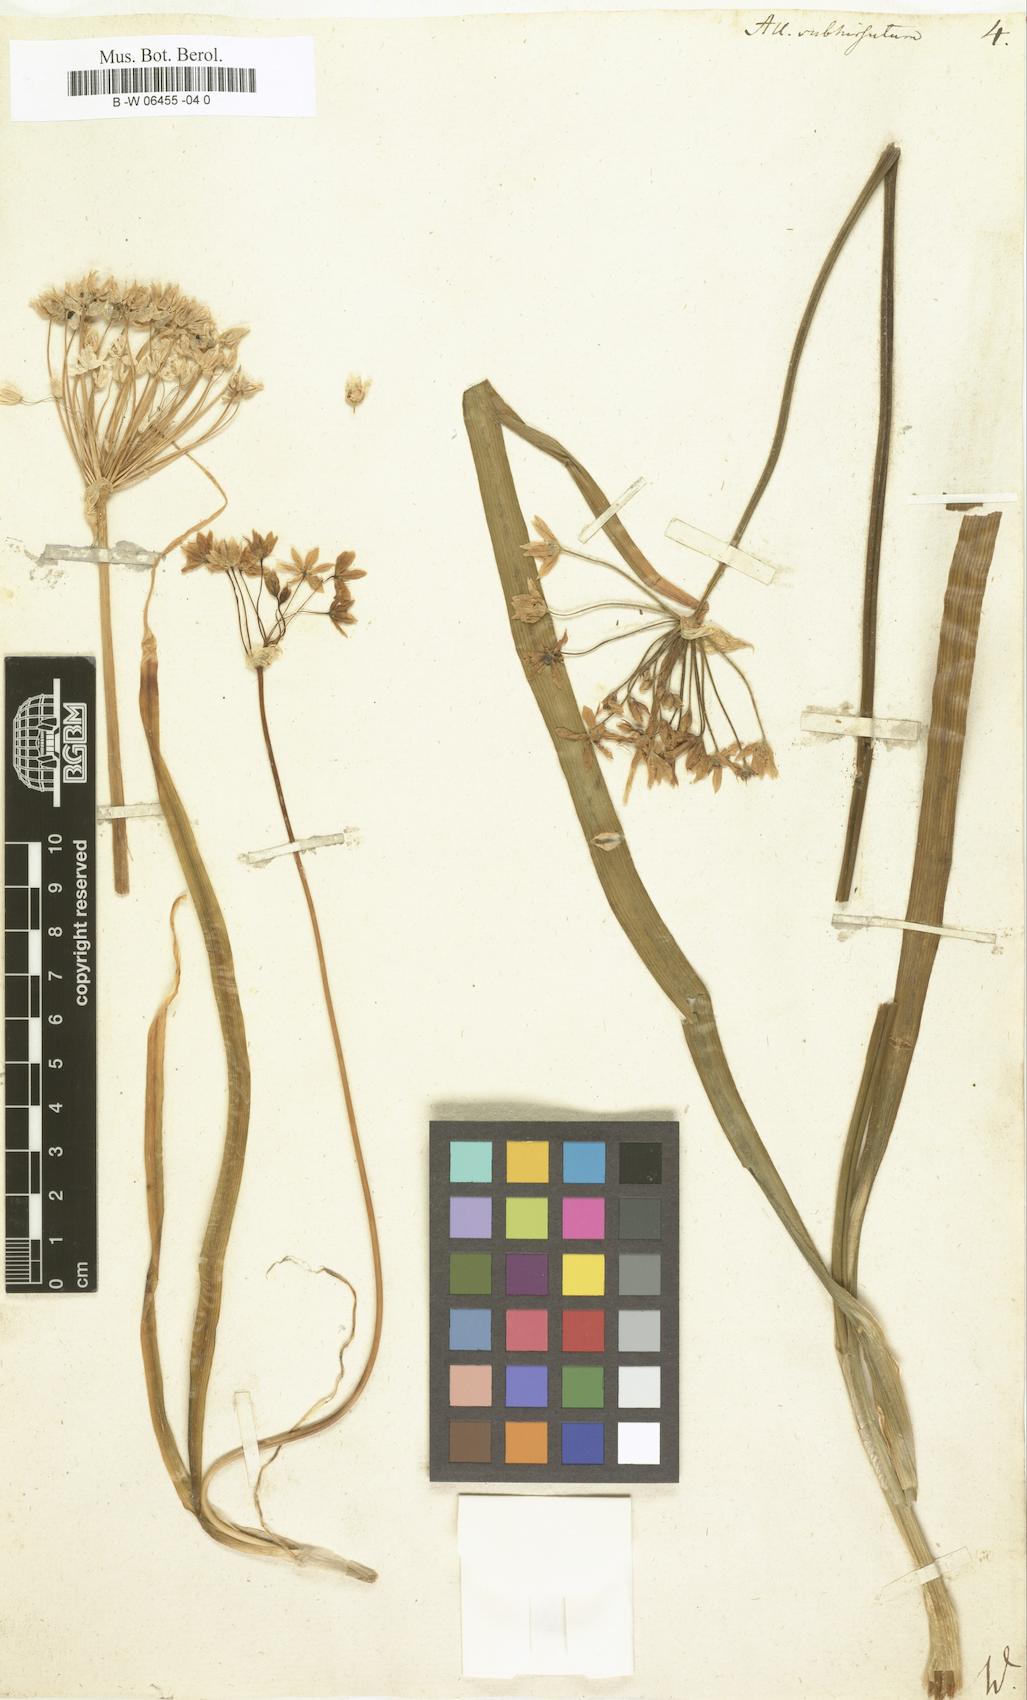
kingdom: Plantae
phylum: Tracheophyta
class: Liliopsida
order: Asparagales
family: Amaryllidaceae
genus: Allium
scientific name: Allium subhirsutum
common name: Hairy garlic
